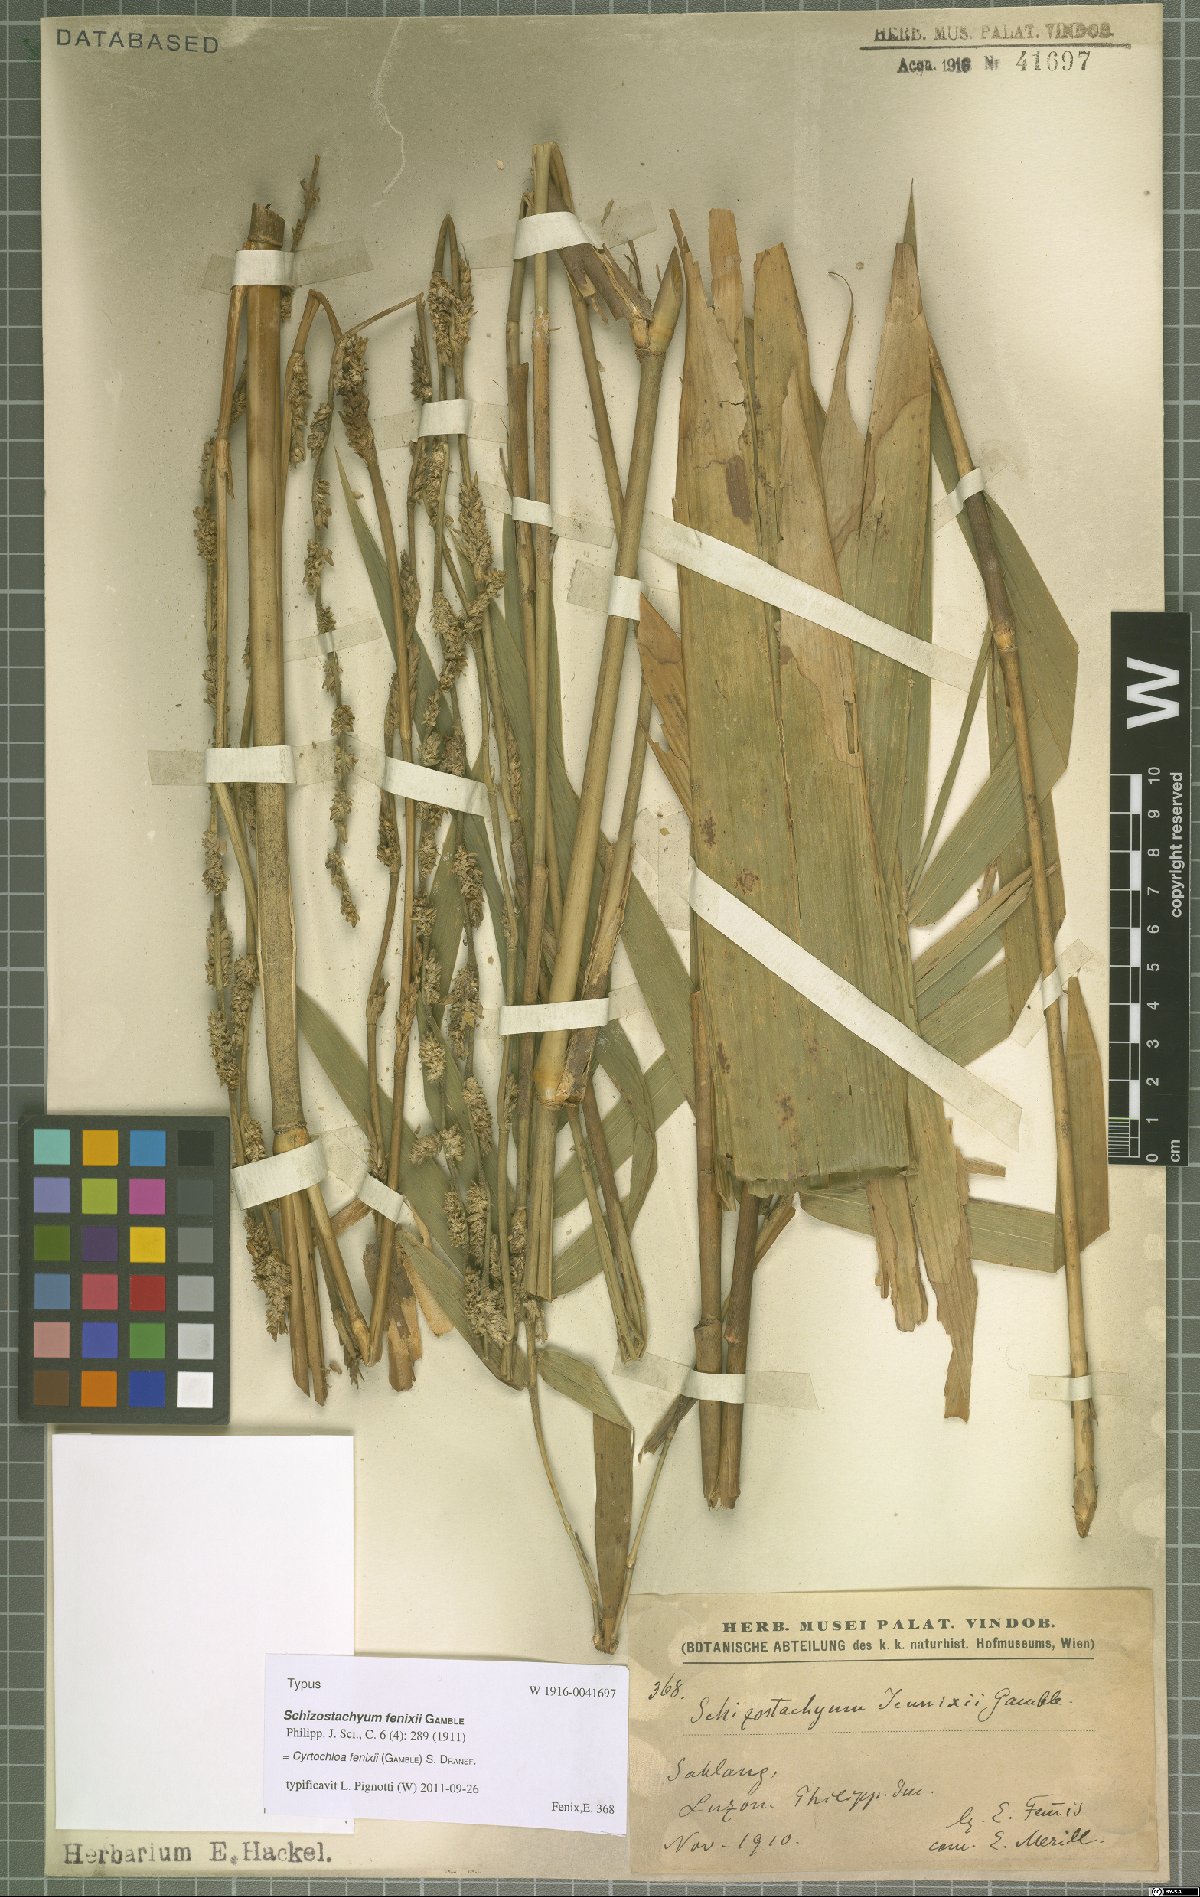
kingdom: Plantae
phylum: Tracheophyta
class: Liliopsida
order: Poales
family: Poaceae
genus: Cyrtochloa
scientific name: Cyrtochloa fenixii
